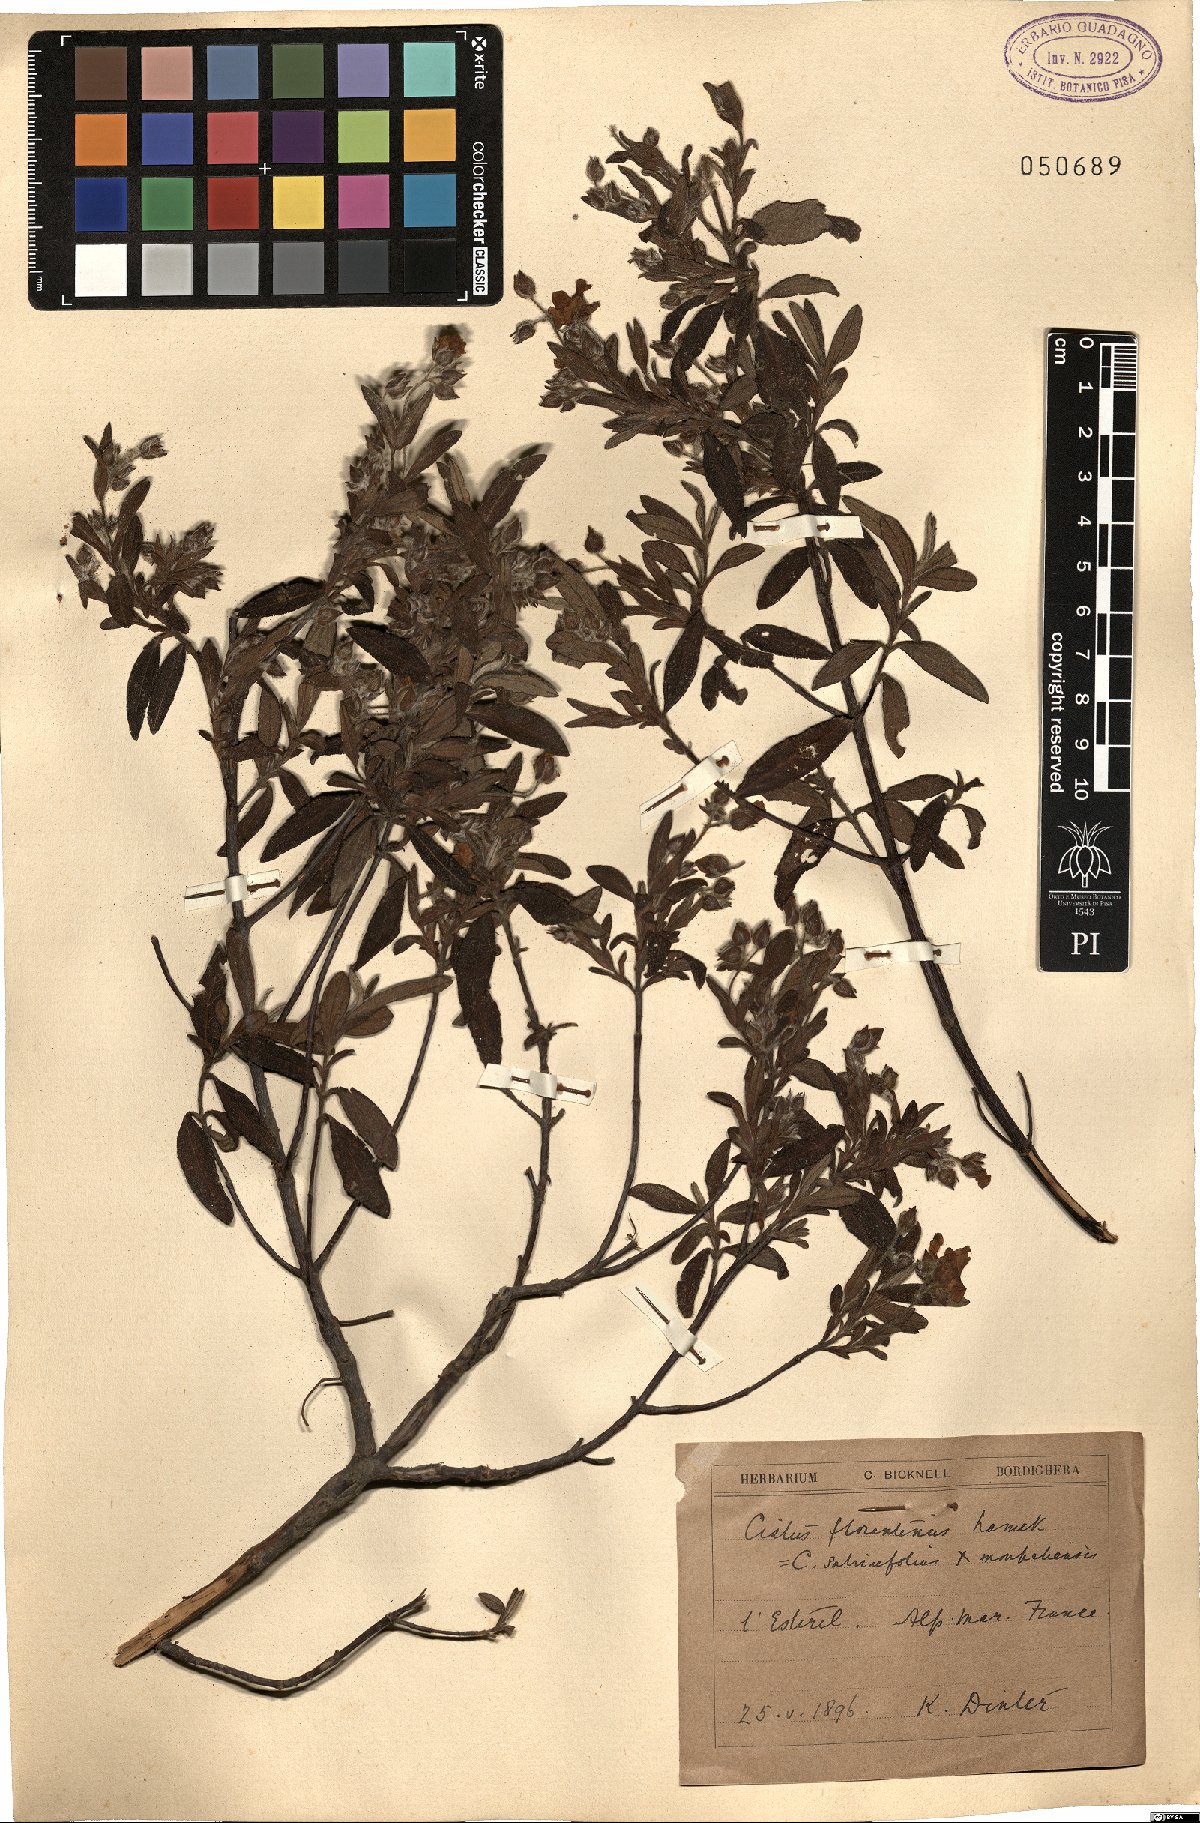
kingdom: Plantae
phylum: Tracheophyta
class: Magnoliopsida
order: Malvales
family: Cistaceae
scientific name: Cistaceae
